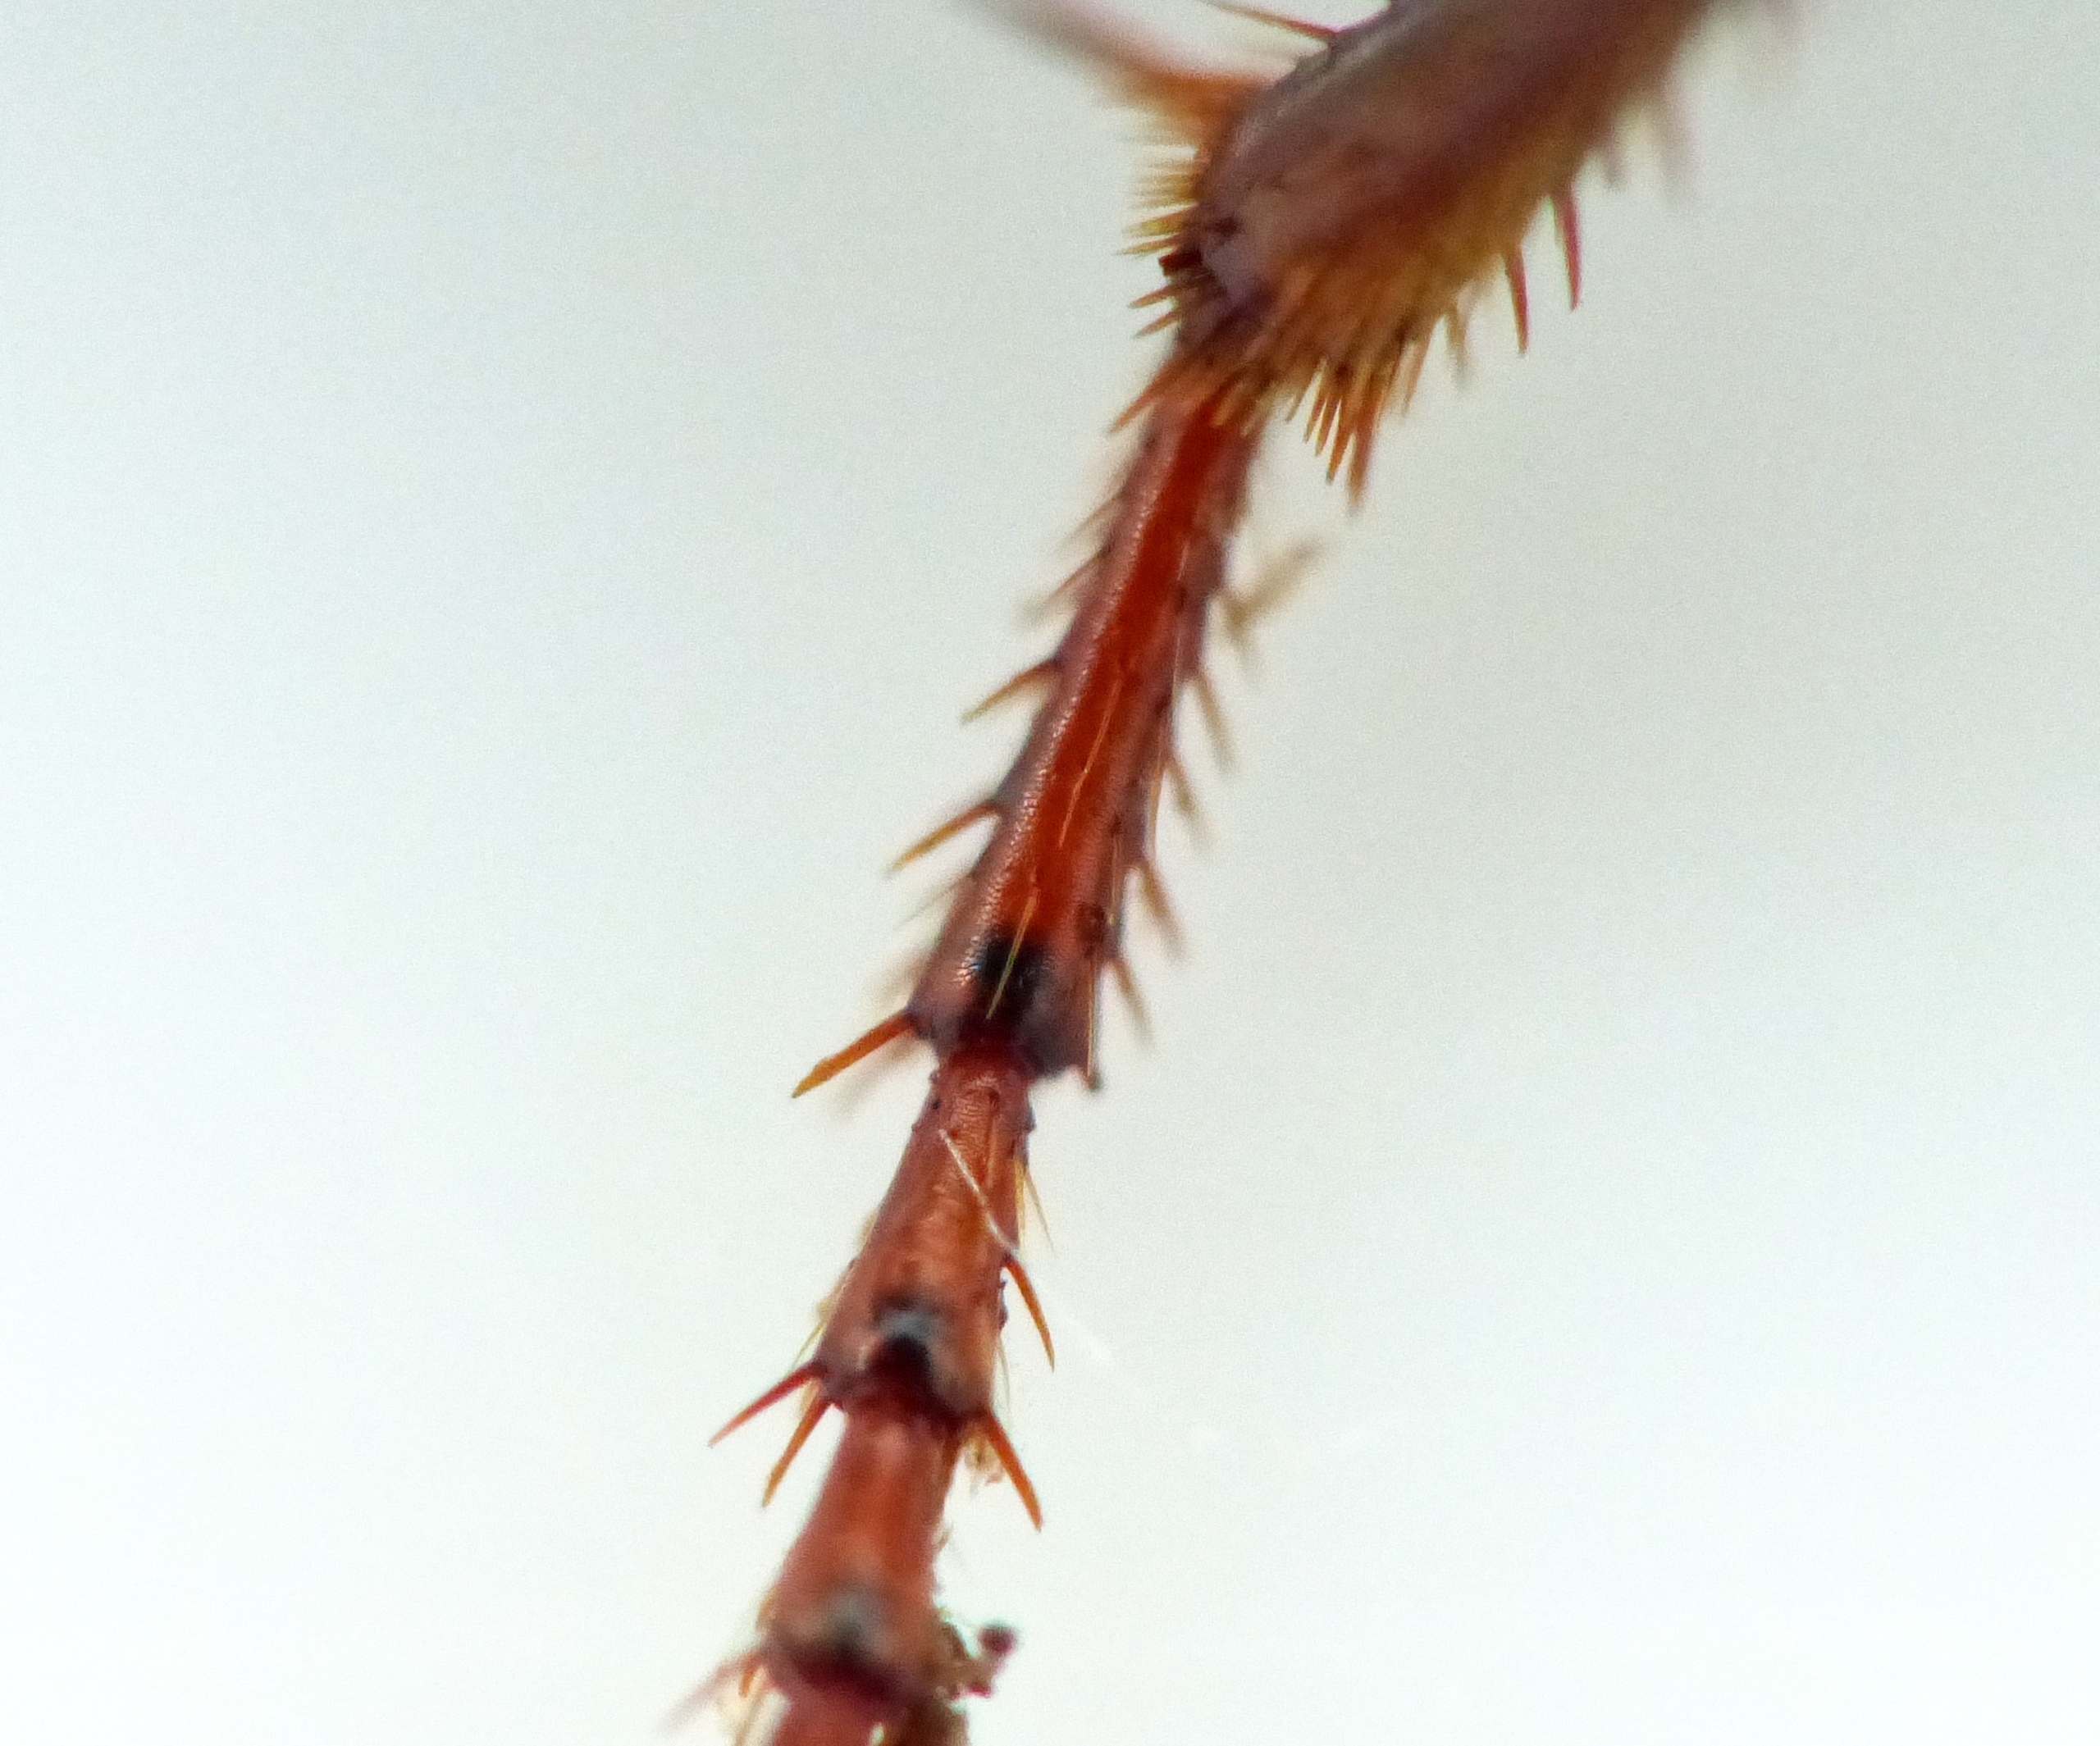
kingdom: Animalia
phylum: Arthropoda
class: Insecta
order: Coleoptera
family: Carabidae
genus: Nebria
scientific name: Nebria brevicollis
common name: Skovfladløber
